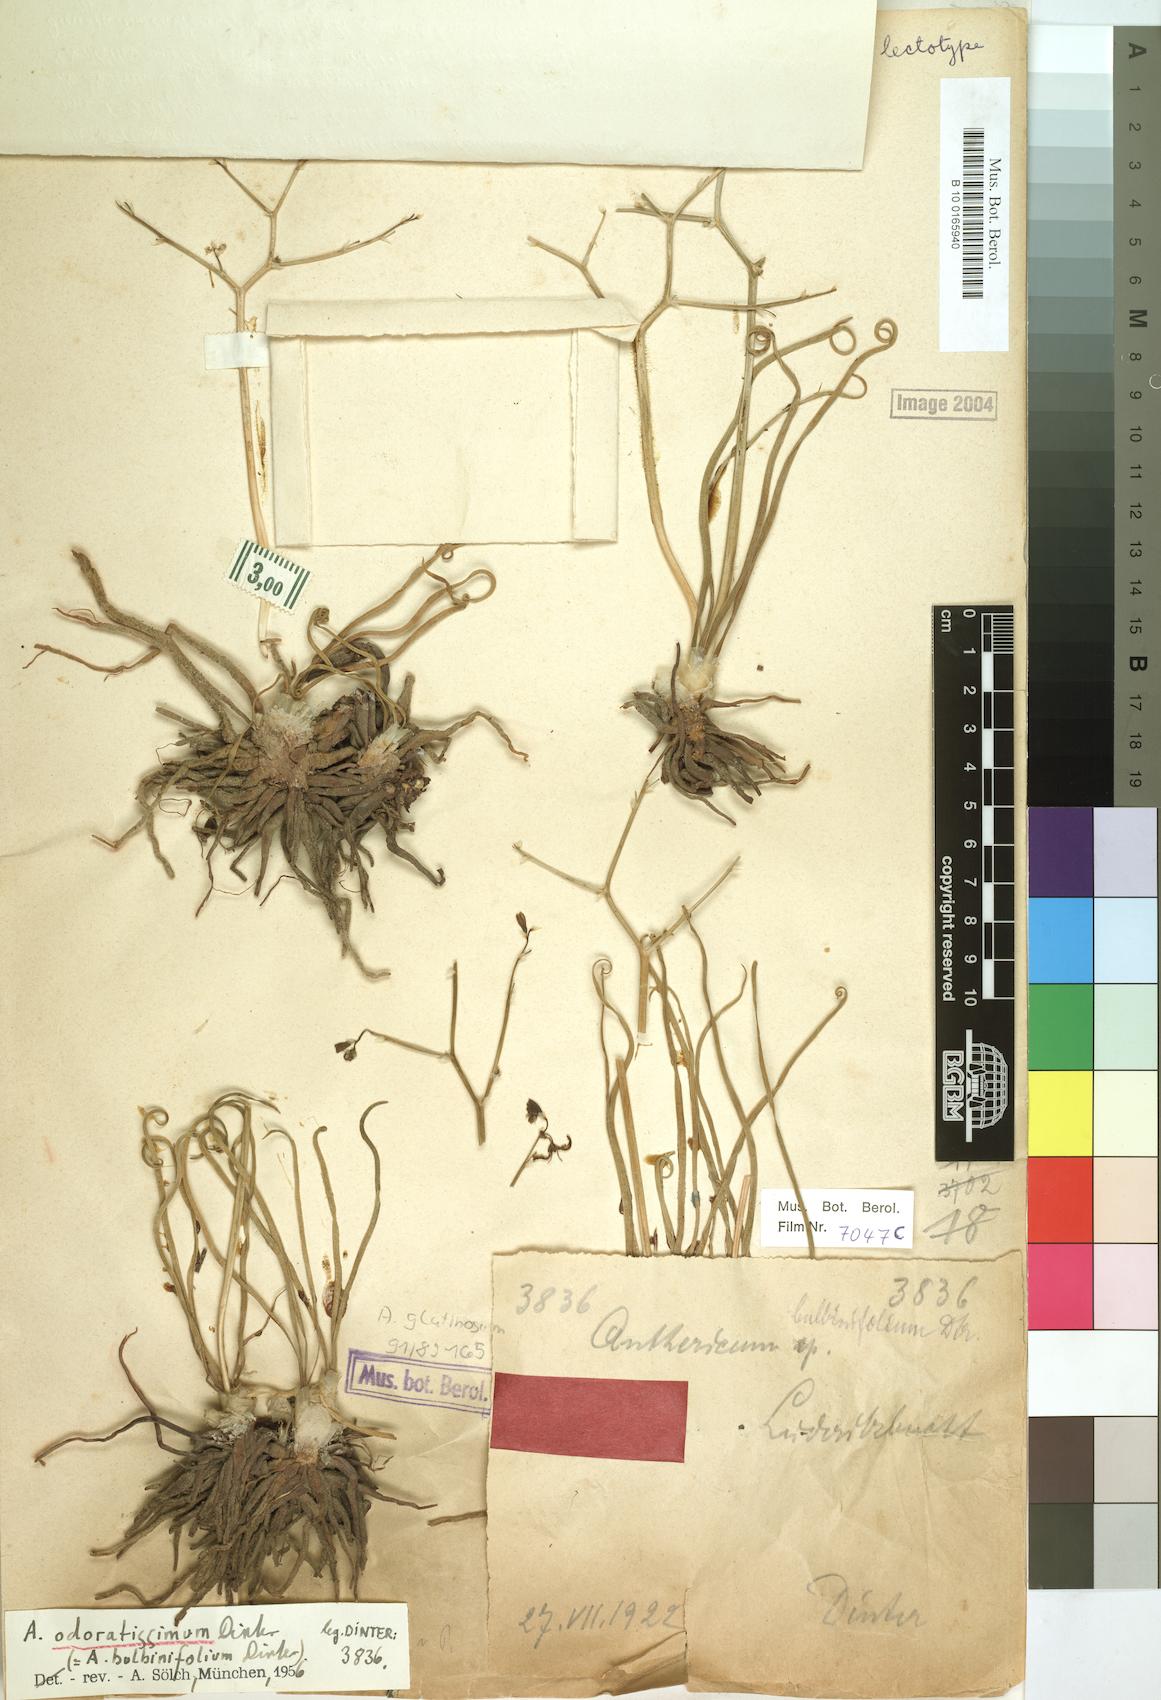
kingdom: Plantae
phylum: Tracheophyta
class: Liliopsida
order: Asparagales
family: Asphodelaceae
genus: Trachyandra
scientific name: Trachyandra laxa
